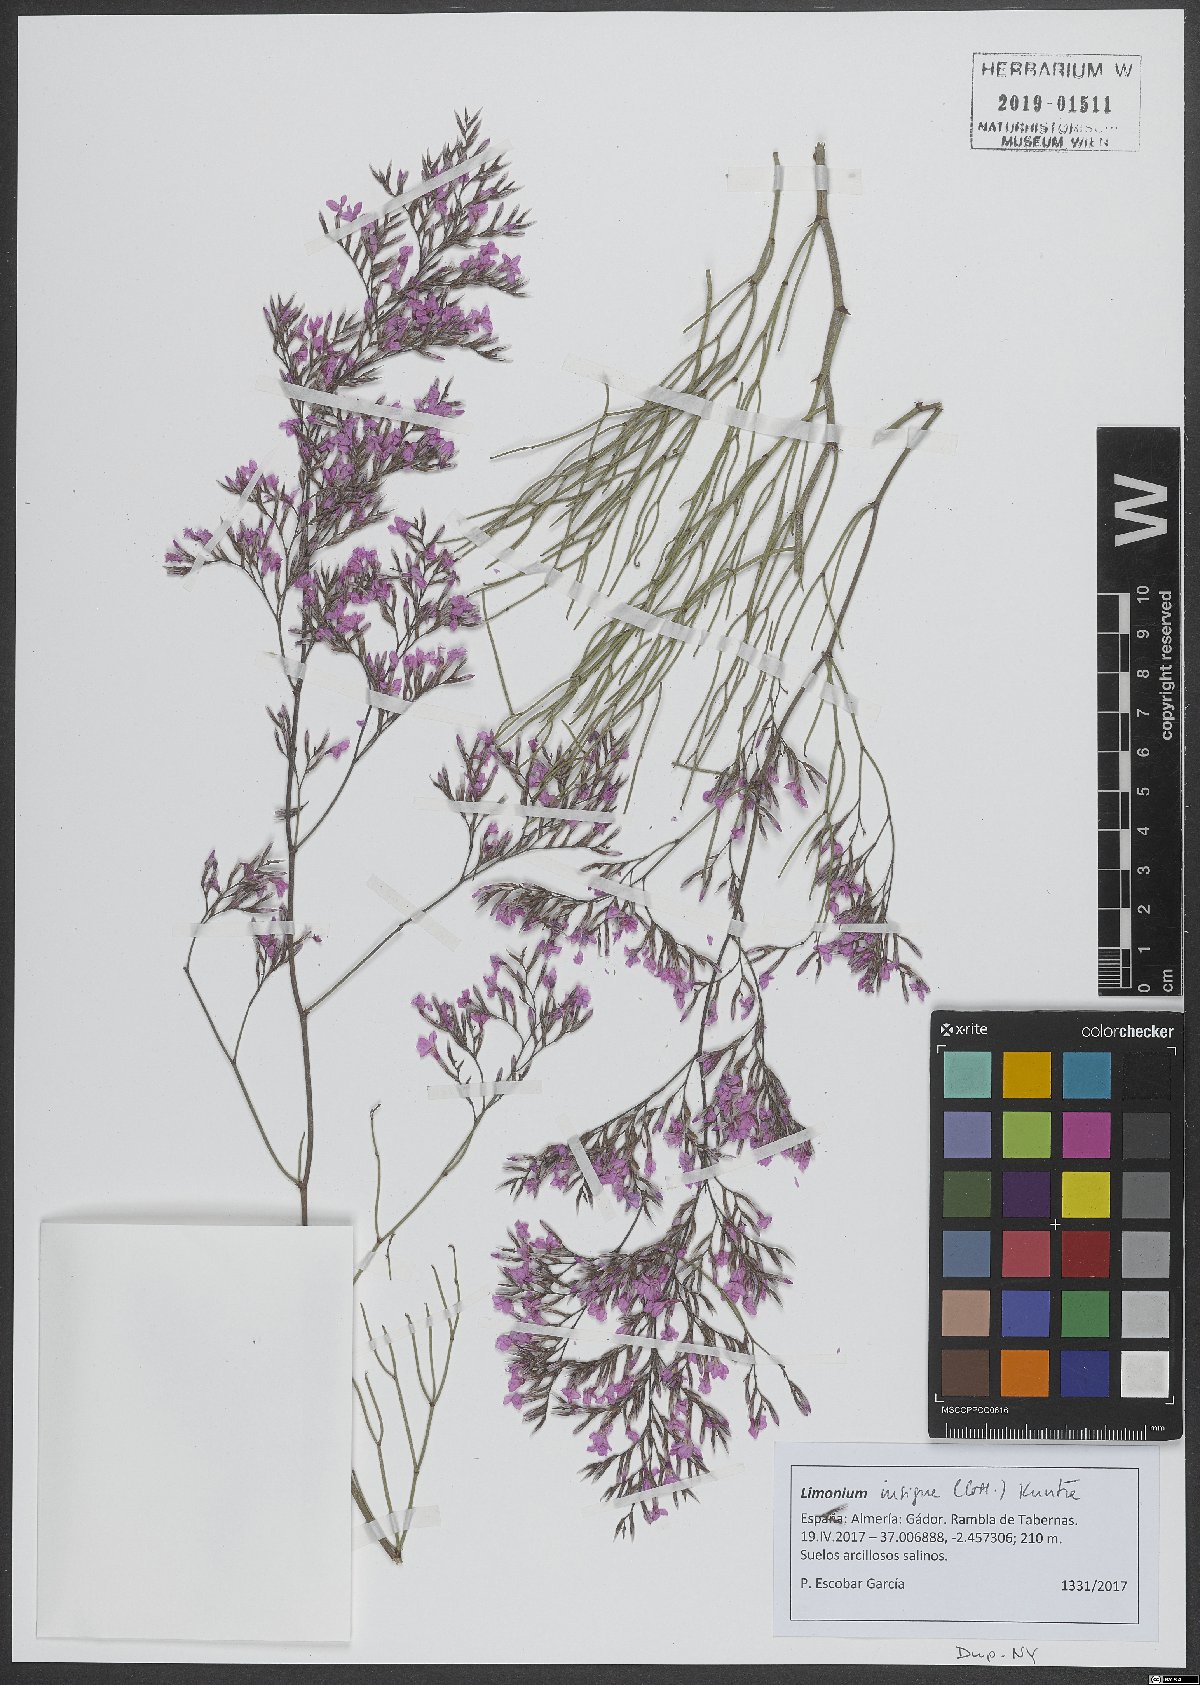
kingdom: Plantae
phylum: Tracheophyta
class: Magnoliopsida
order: Caryophyllales
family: Plumbaginaceae
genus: Limonium
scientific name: Limonium insigne
